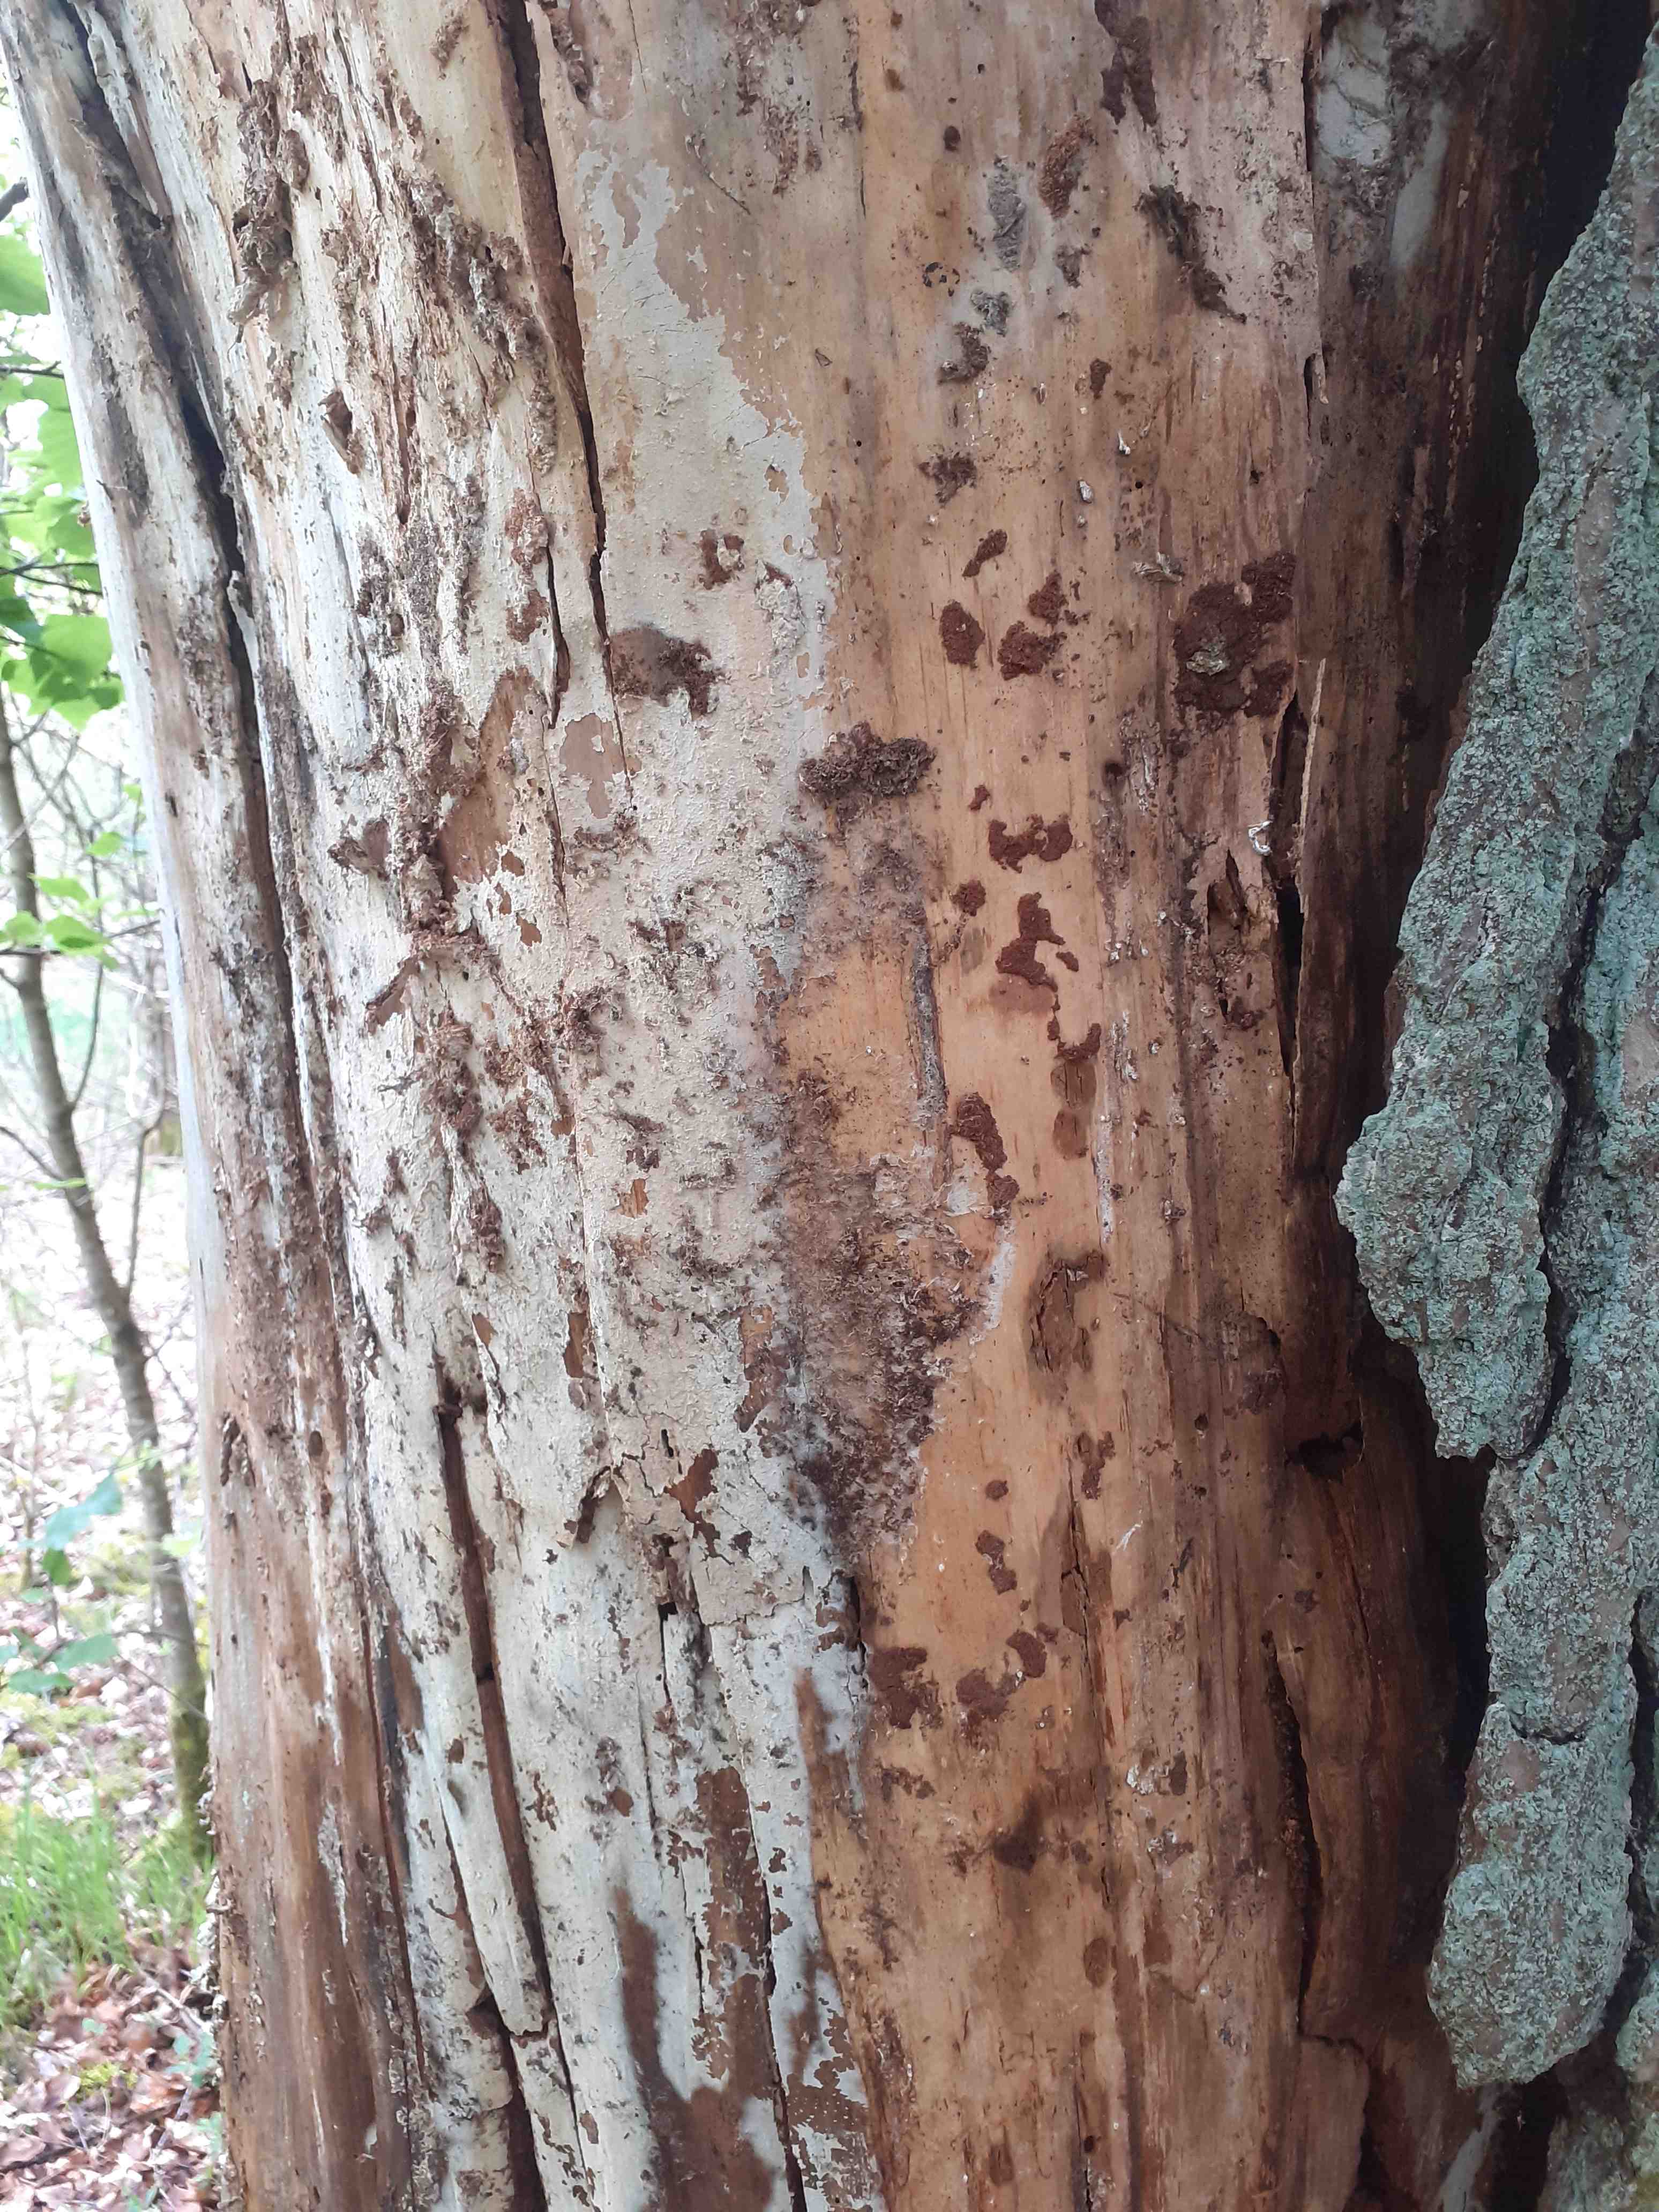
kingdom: Fungi
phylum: Basidiomycota
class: Agaricomycetes
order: Cantharellales
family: Botryobasidiaceae
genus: Botryobasidium
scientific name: Botryobasidium subcoronatum
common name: almindelig spindhinde
